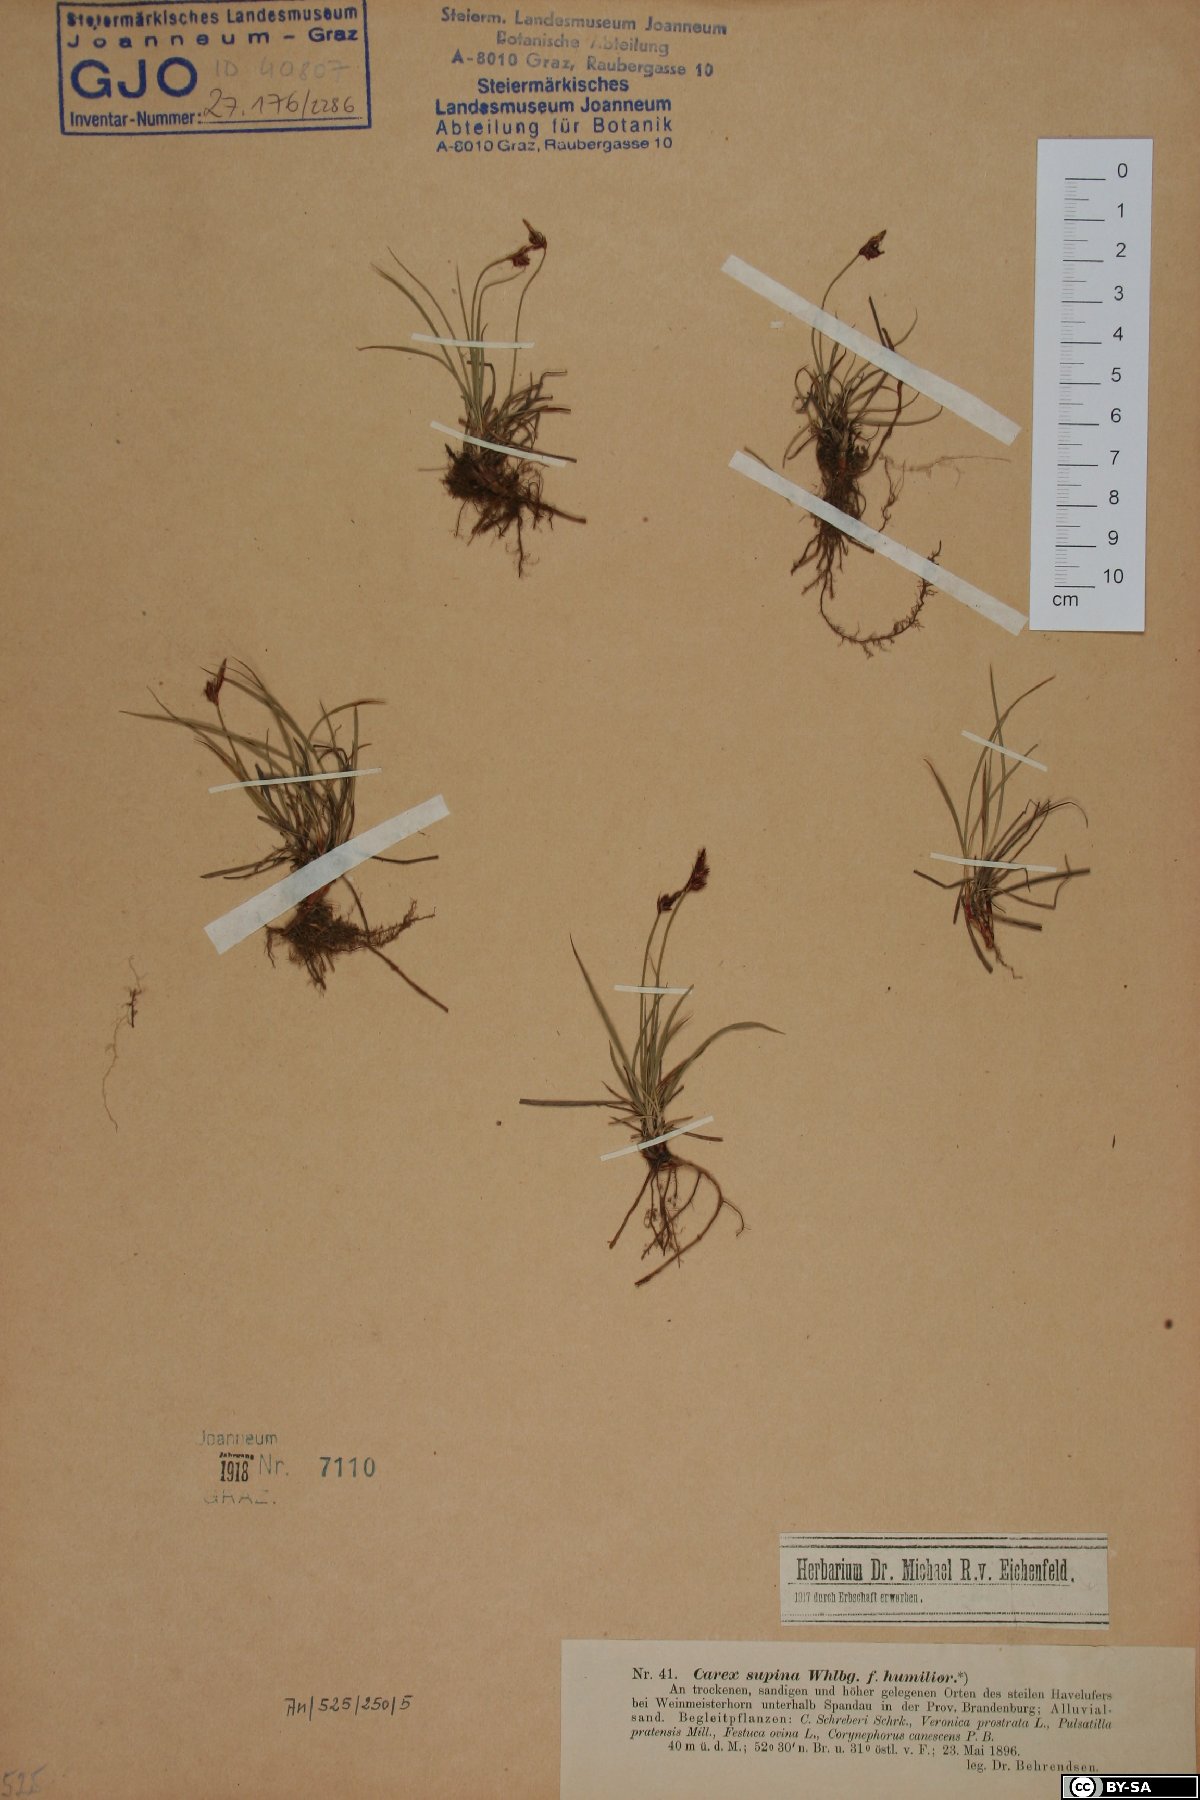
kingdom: Fungi
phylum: Basidiomycota
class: Agaricomycetes
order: Boletales
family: Boletaceae
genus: Rubroboletus
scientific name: Rubroboletus rhodoxanthus
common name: Ruddy bolete
